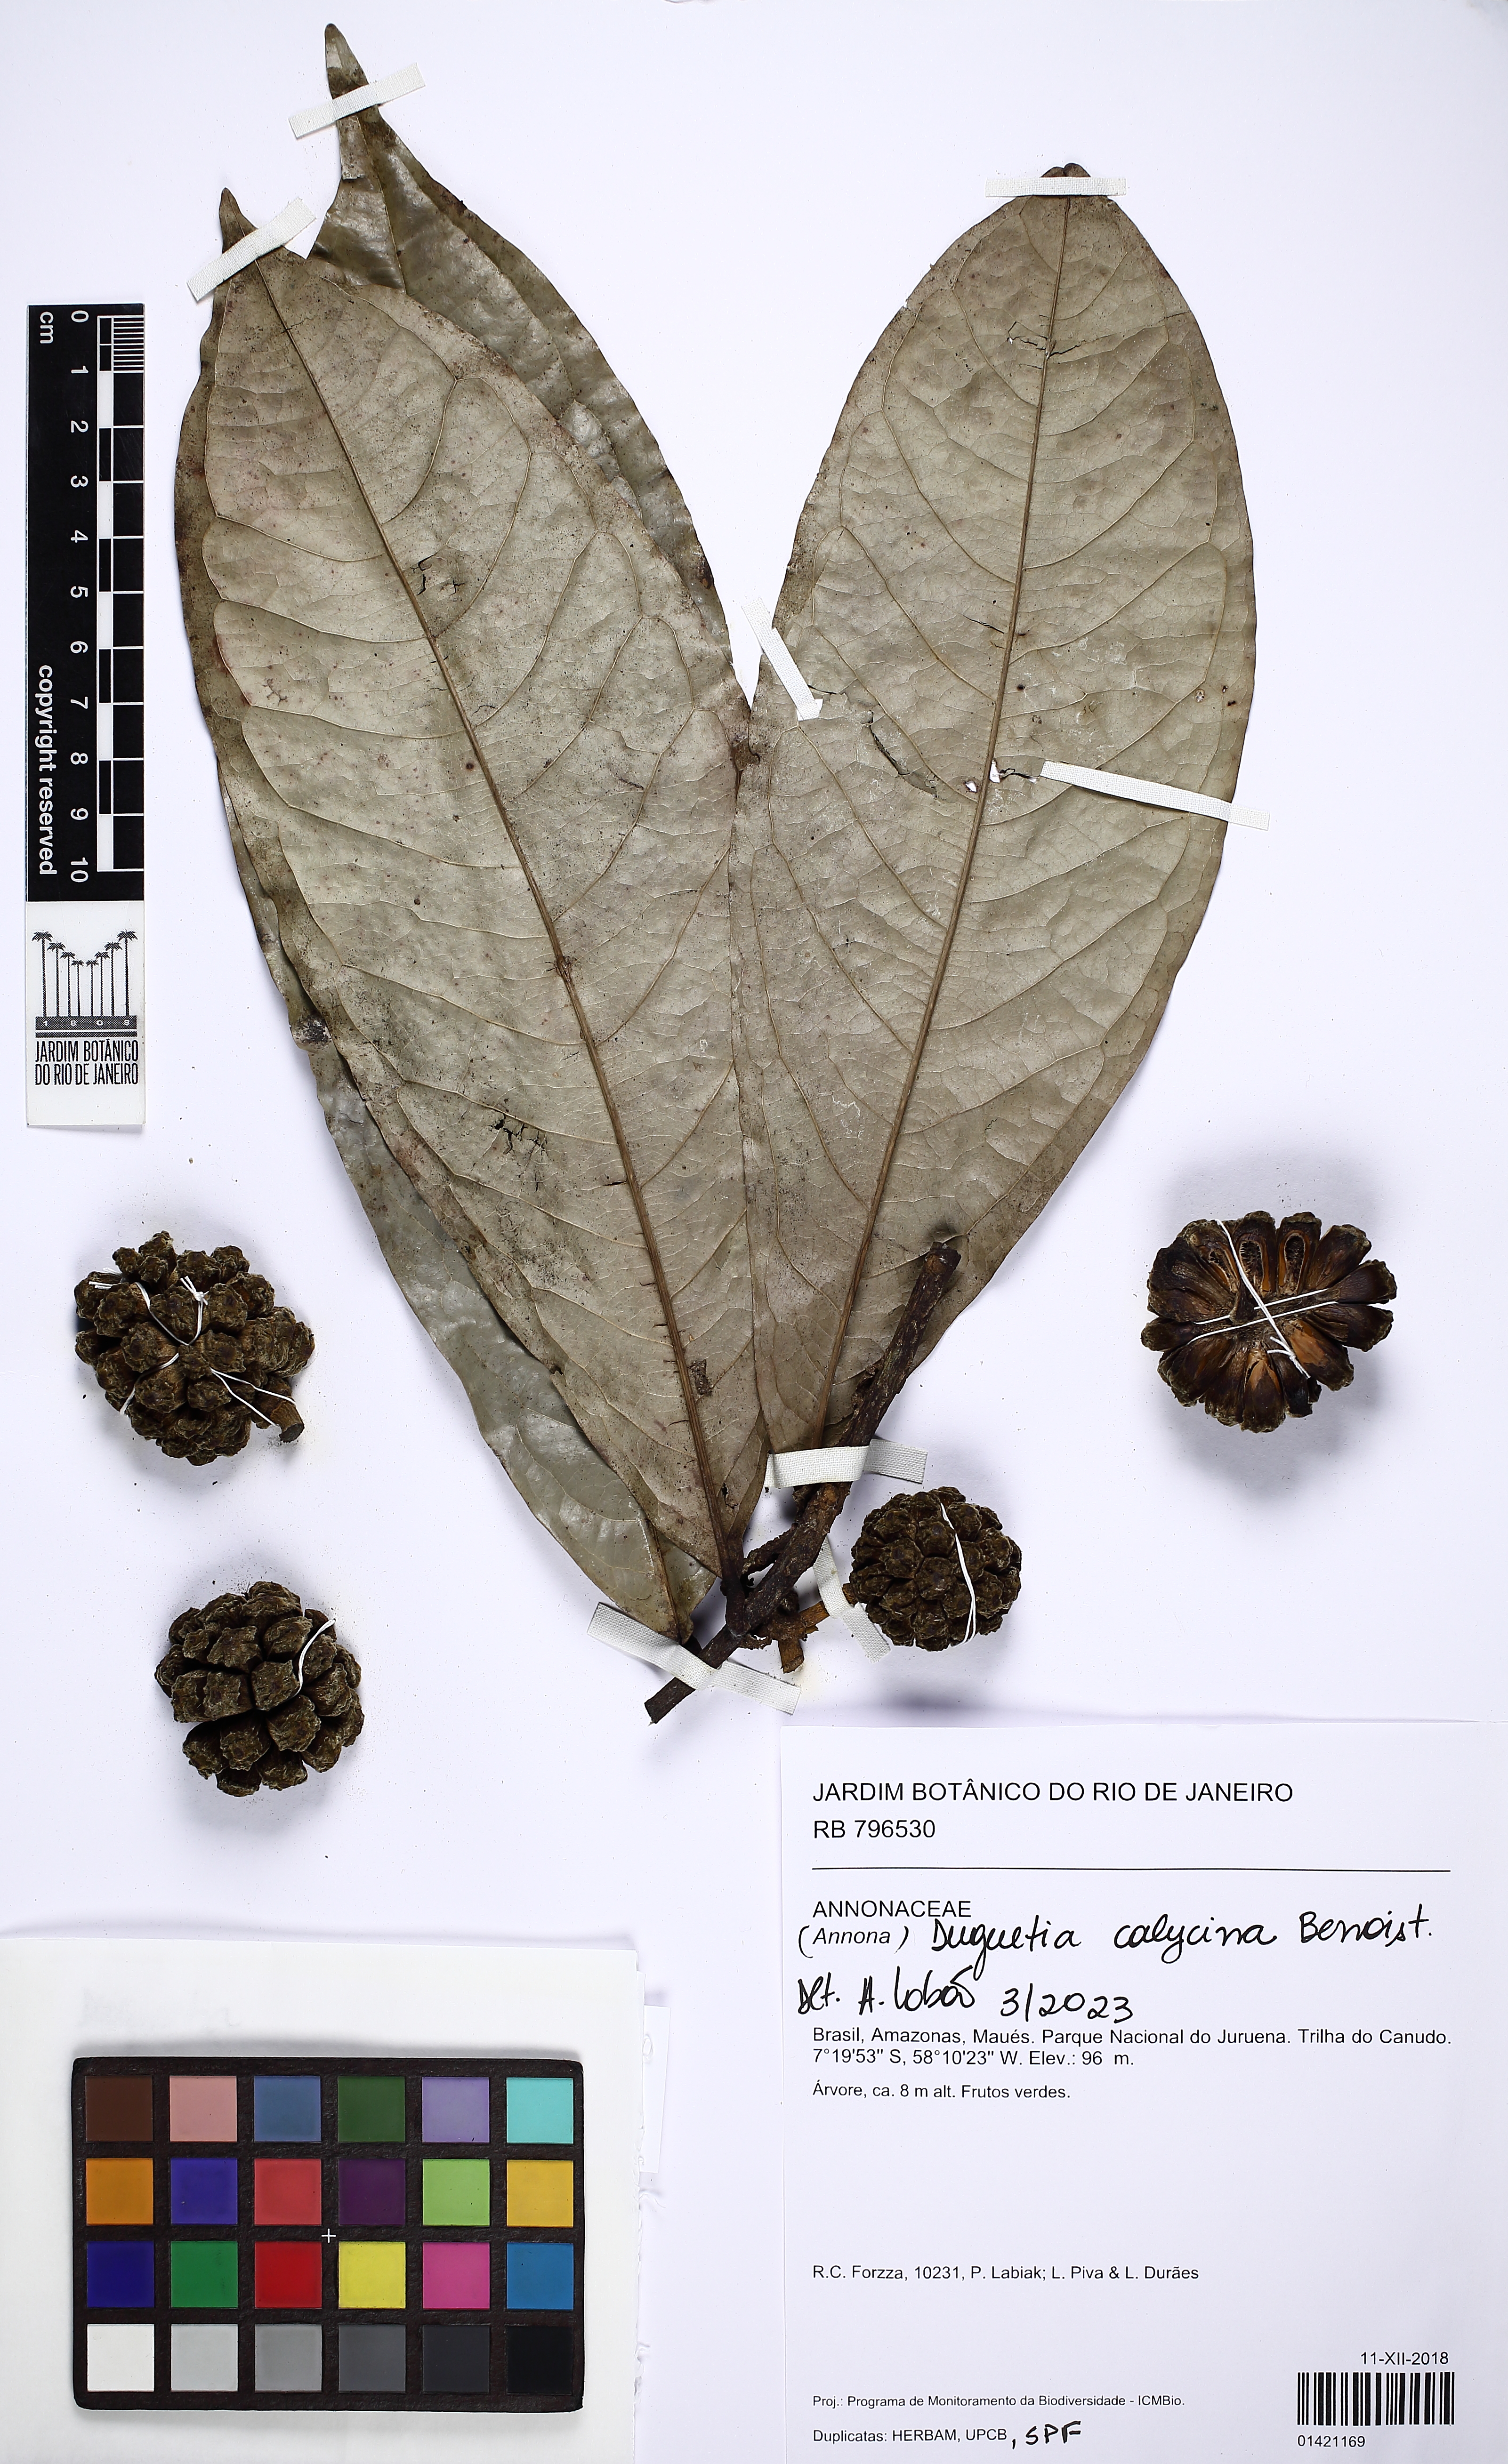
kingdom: Plantae
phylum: Tracheophyta
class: Magnoliopsida
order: Magnoliales
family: Annonaceae
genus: Duguetia
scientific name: Duguetia calycina
